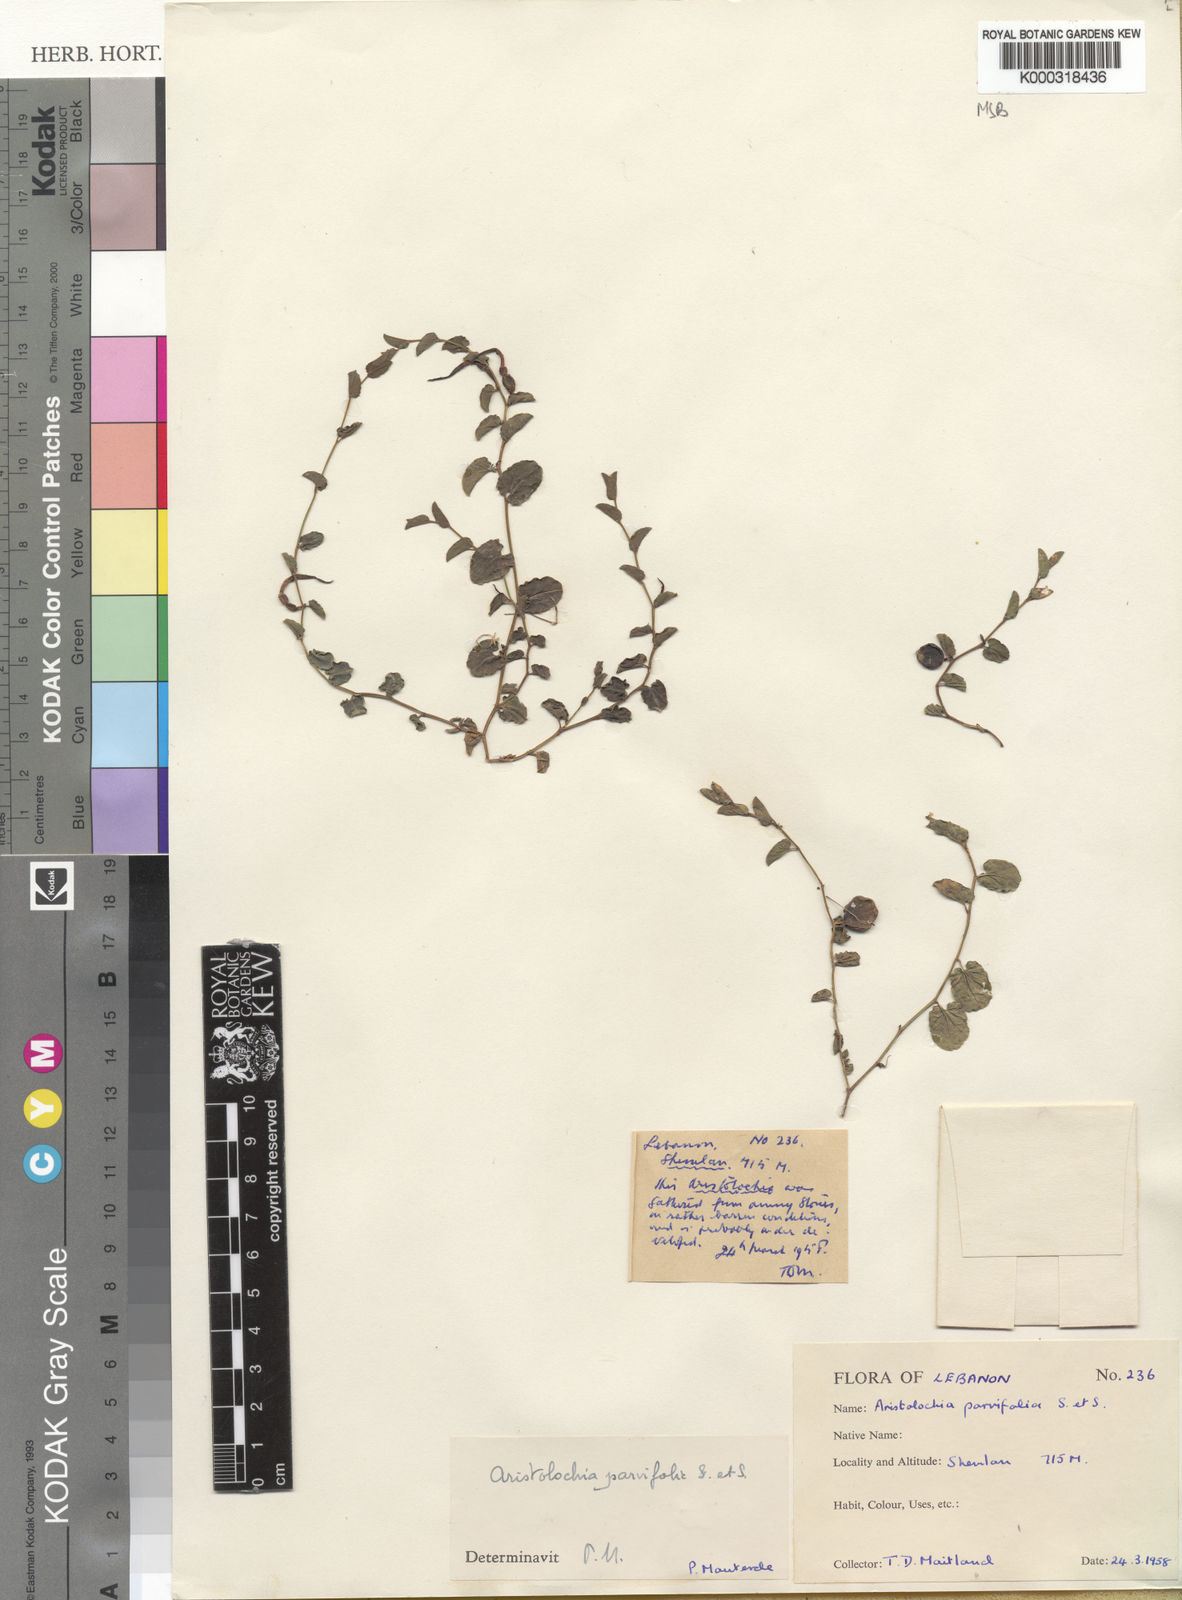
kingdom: Plantae
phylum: Tracheophyta
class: Magnoliopsida
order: Piperales
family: Aristolochiaceae
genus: Aristolochia
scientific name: Aristolochia parvifolia
